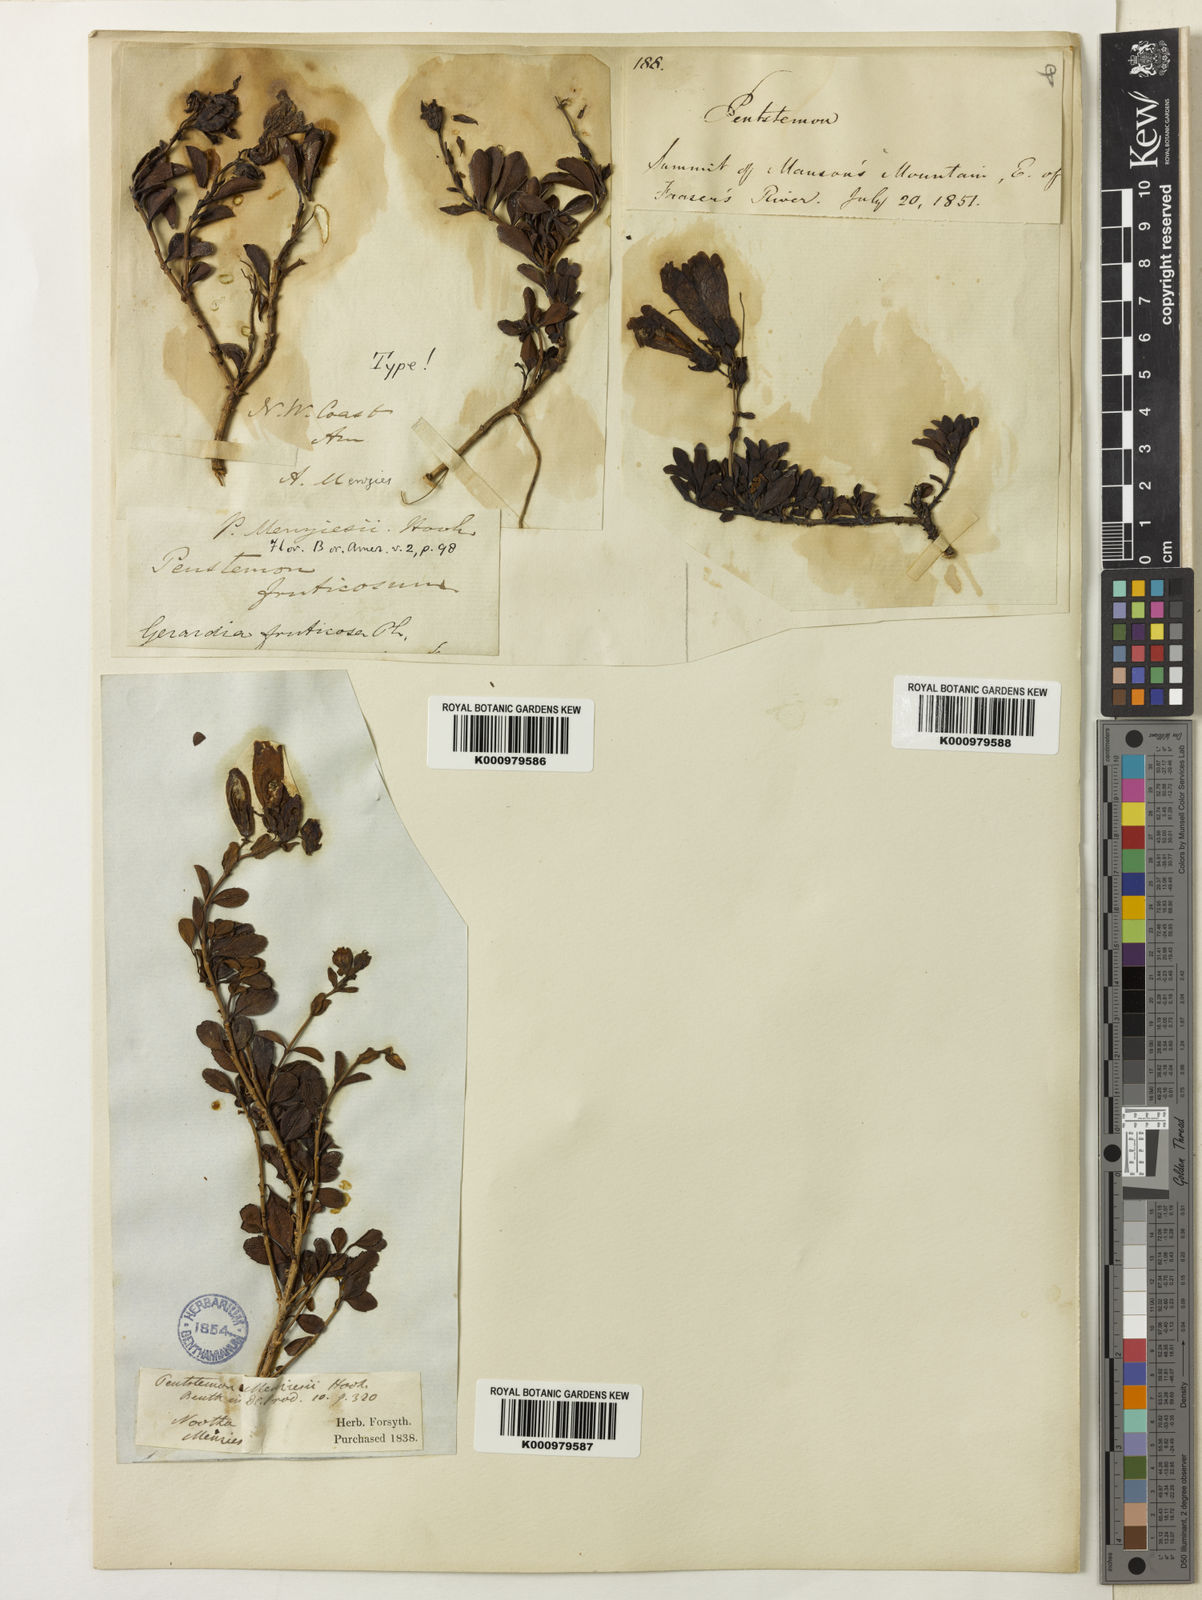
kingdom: Plantae
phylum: Tracheophyta
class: Magnoliopsida
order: Lamiales
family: Plantaginaceae
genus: Penstemon
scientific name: Penstemon
